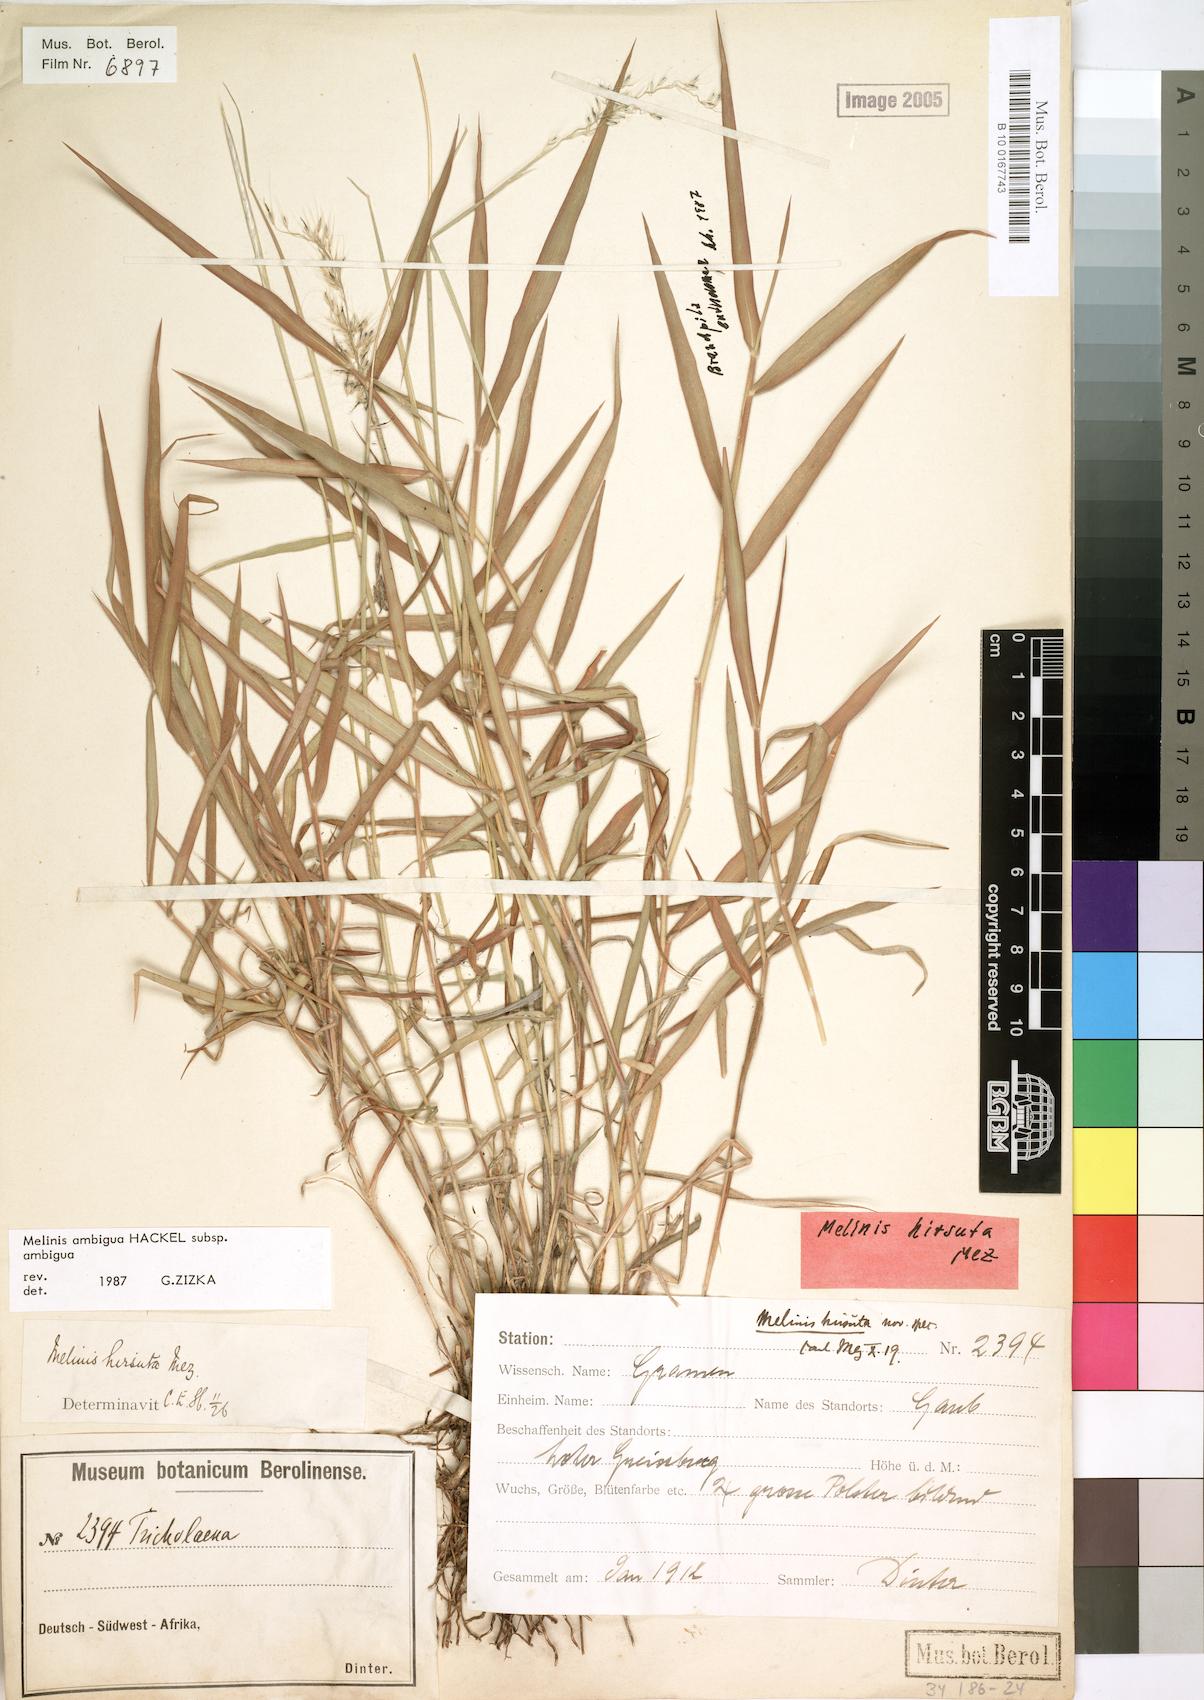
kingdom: Plantae
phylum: Tracheophyta
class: Liliopsida
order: Poales
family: Poaceae
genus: Melinis
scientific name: Melinis ambigua
